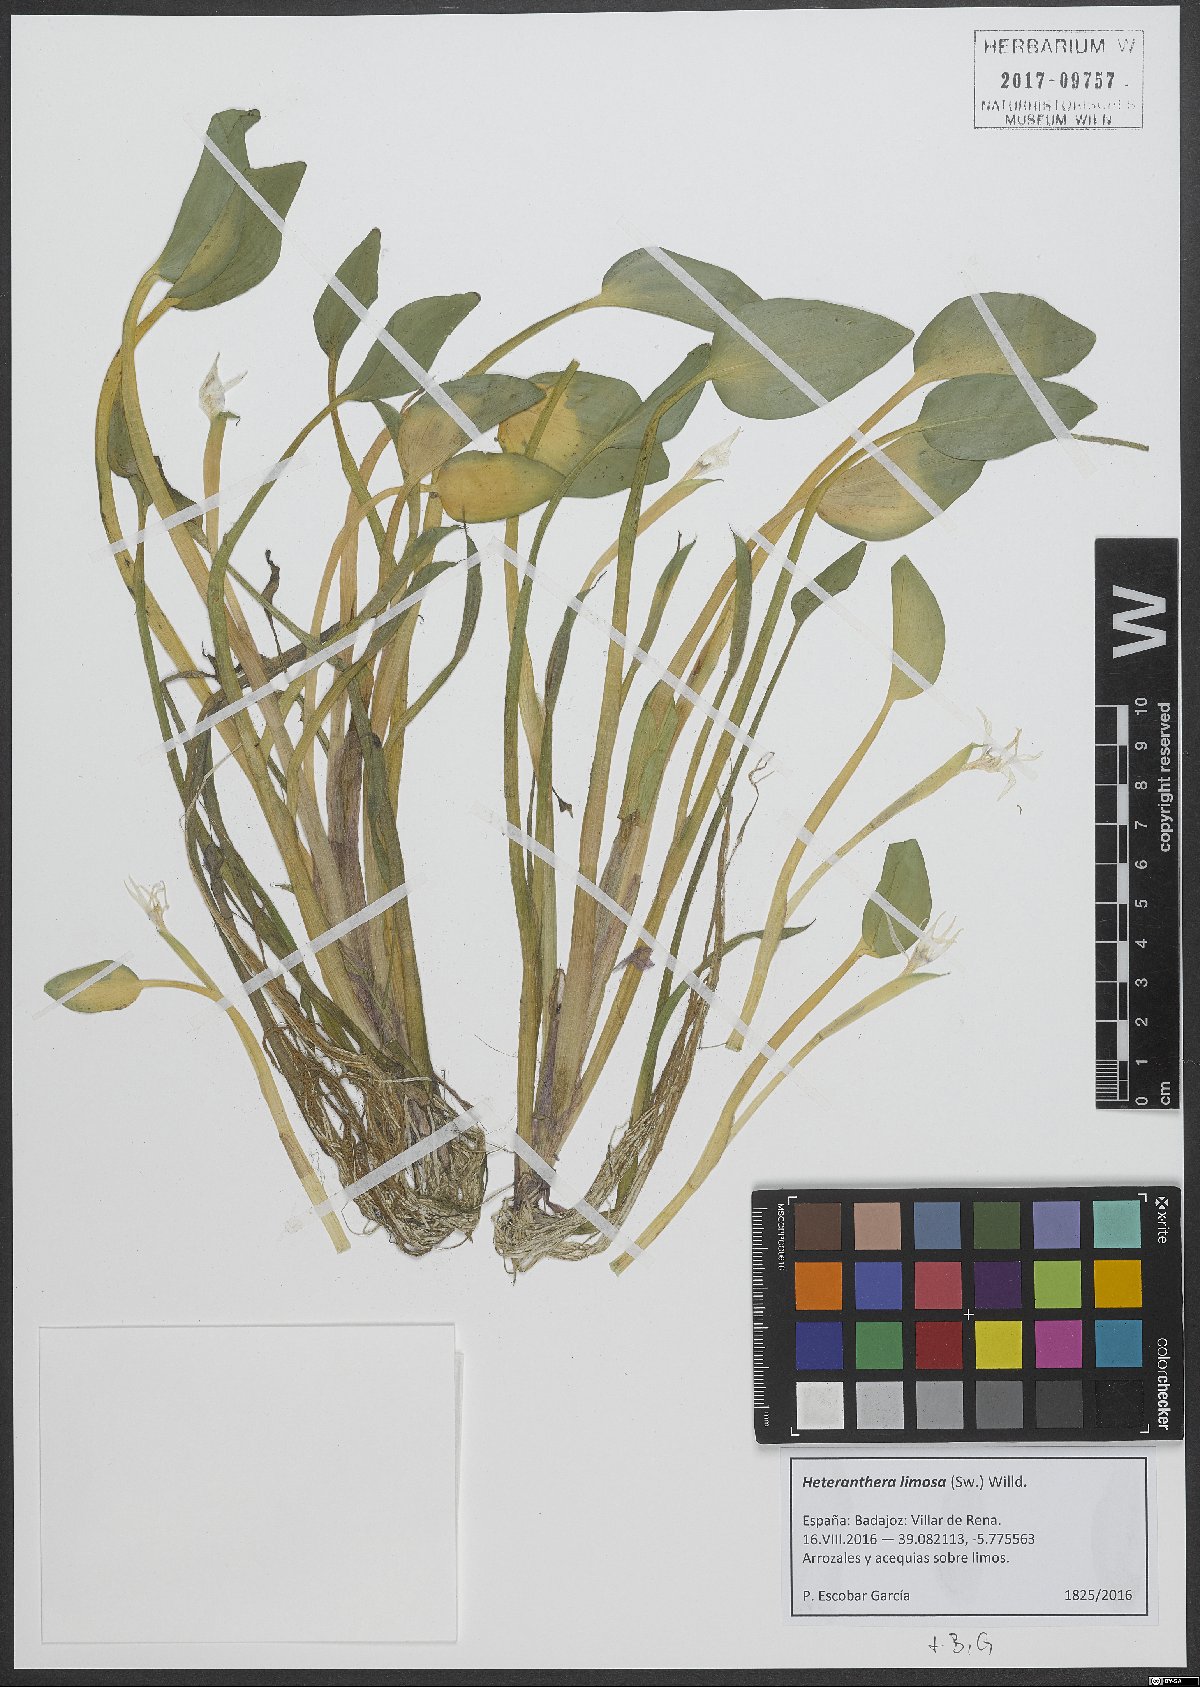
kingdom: Plantae
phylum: Tracheophyta
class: Liliopsida
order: Commelinales
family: Pontederiaceae
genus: Heteranthera
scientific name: Heteranthera limosa
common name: Blue mud-plantain
